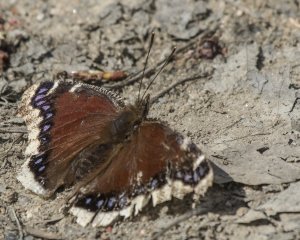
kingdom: Animalia
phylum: Arthropoda
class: Insecta
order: Lepidoptera
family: Nymphalidae
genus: Nymphalis
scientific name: Nymphalis antiopa
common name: Mourning Cloak
